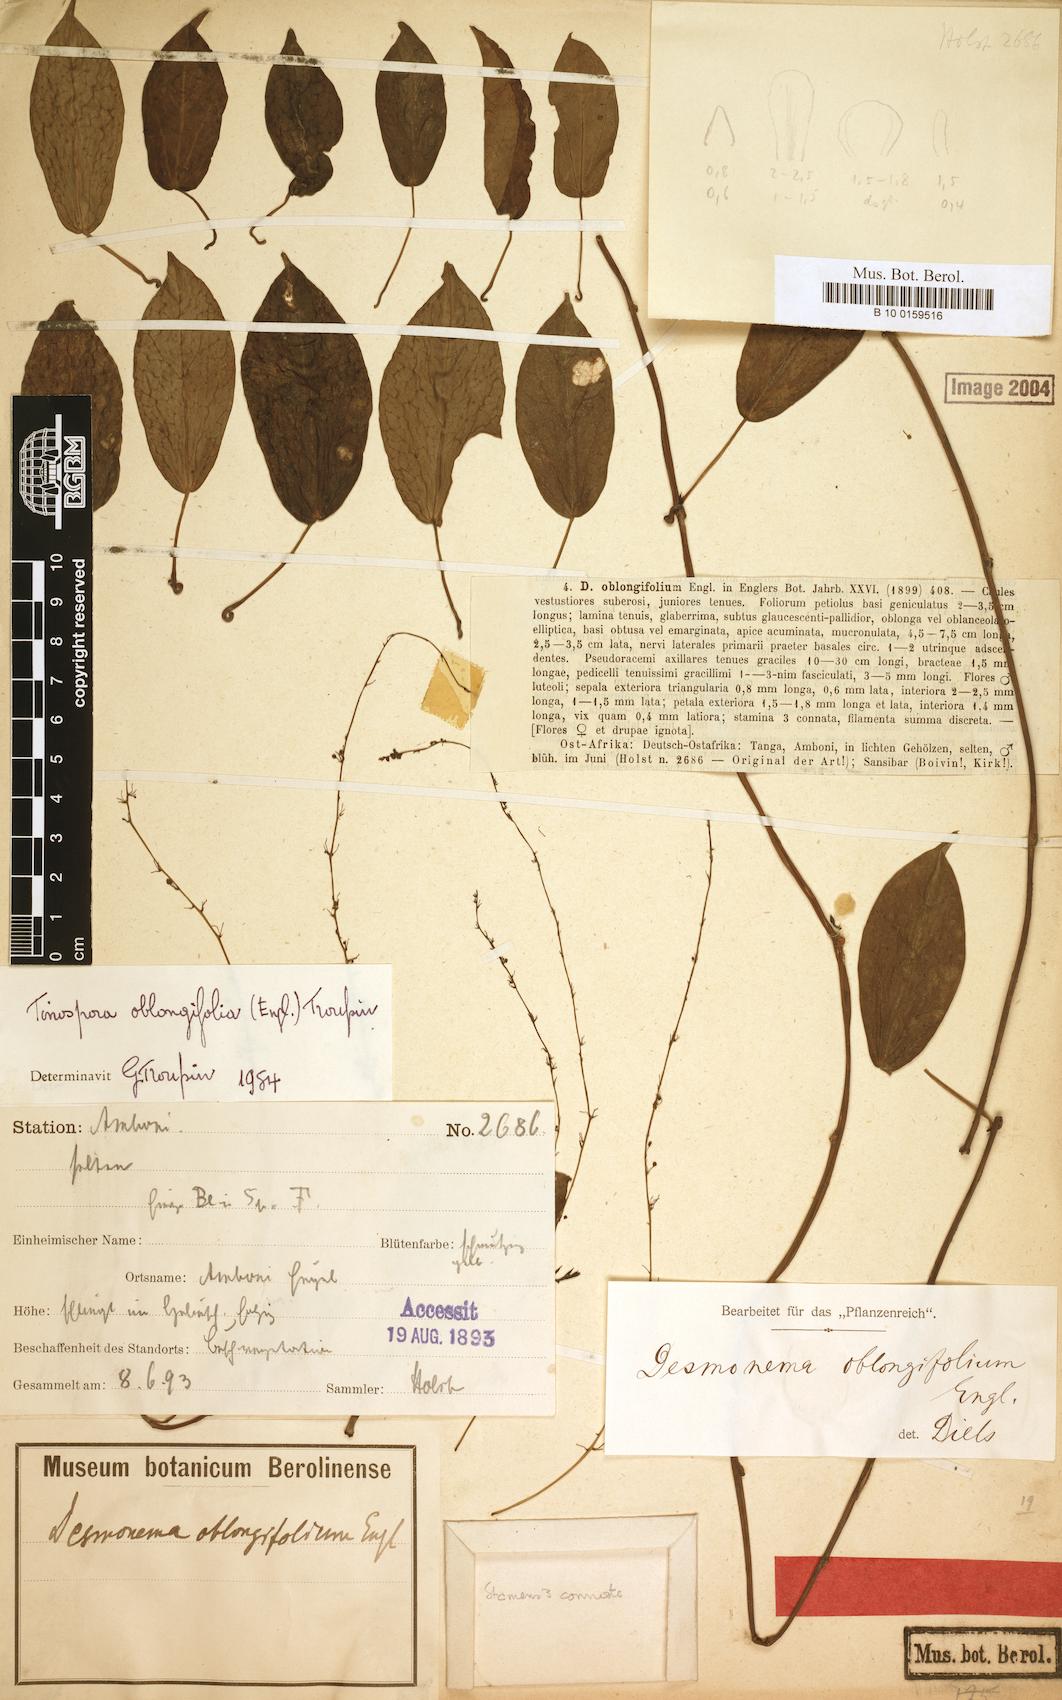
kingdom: Plantae
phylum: Tracheophyta
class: Magnoliopsida
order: Ranunculales
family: Menispermaceae
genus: Tinospora
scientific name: Tinospora oblongifolia
